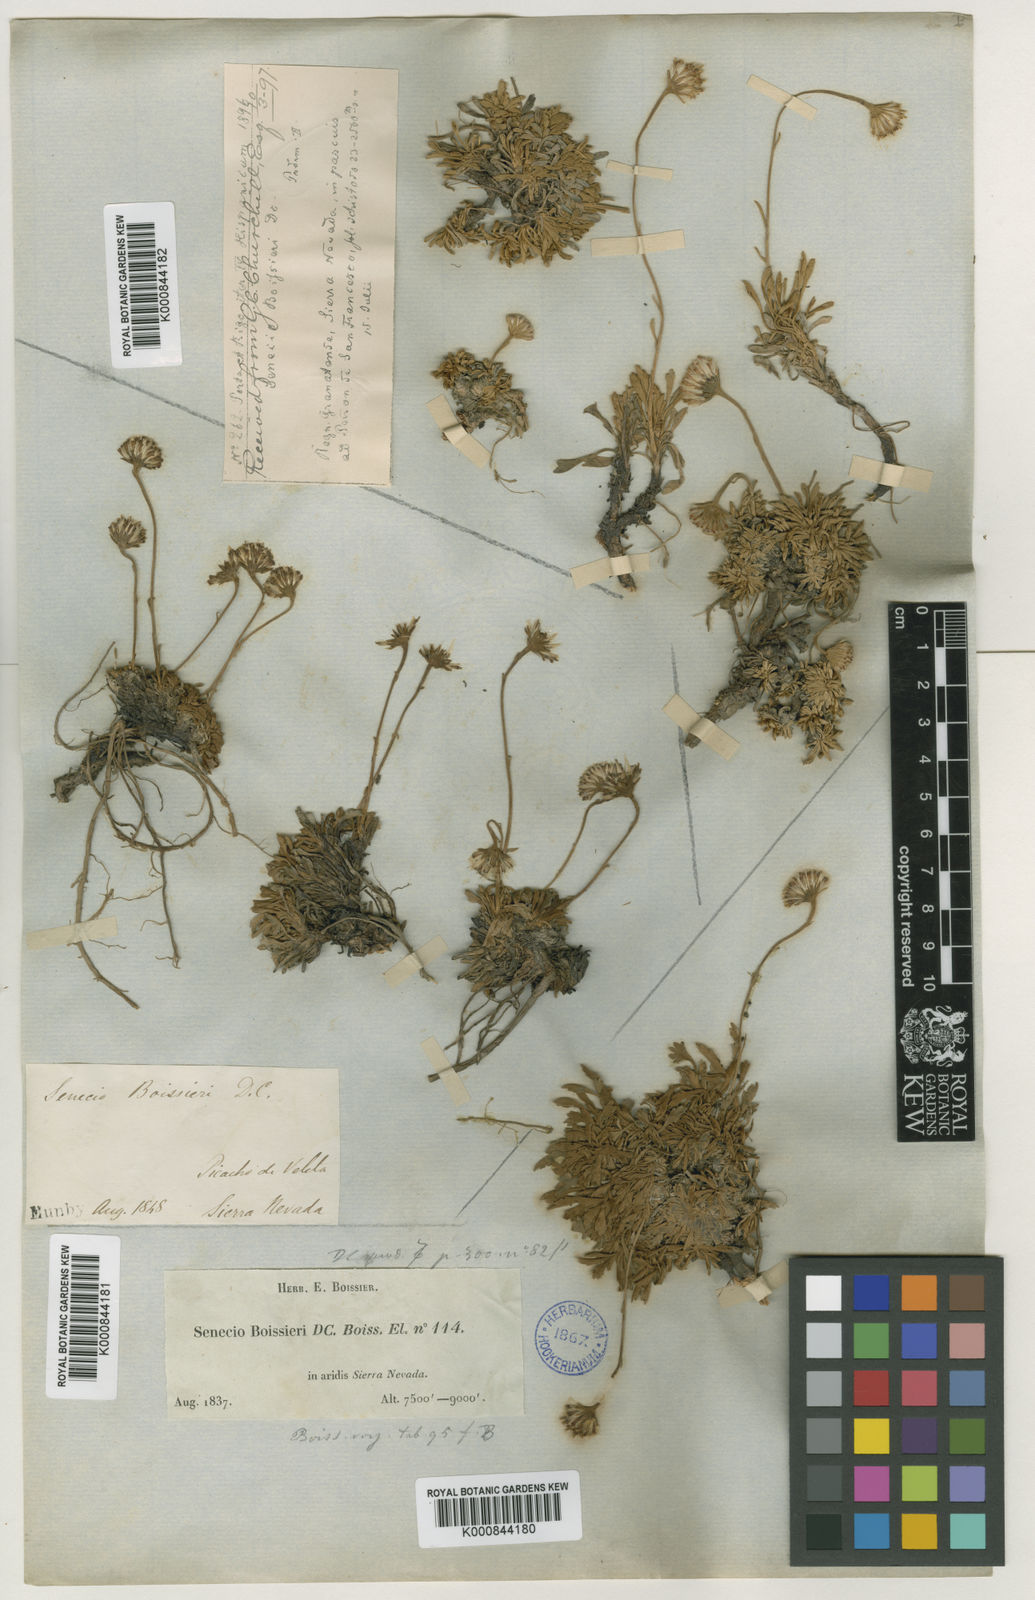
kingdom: Plantae
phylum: Tracheophyta
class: Magnoliopsida
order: Asterales
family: Asteraceae
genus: Jacobaea
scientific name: Jacobaea boissieri
